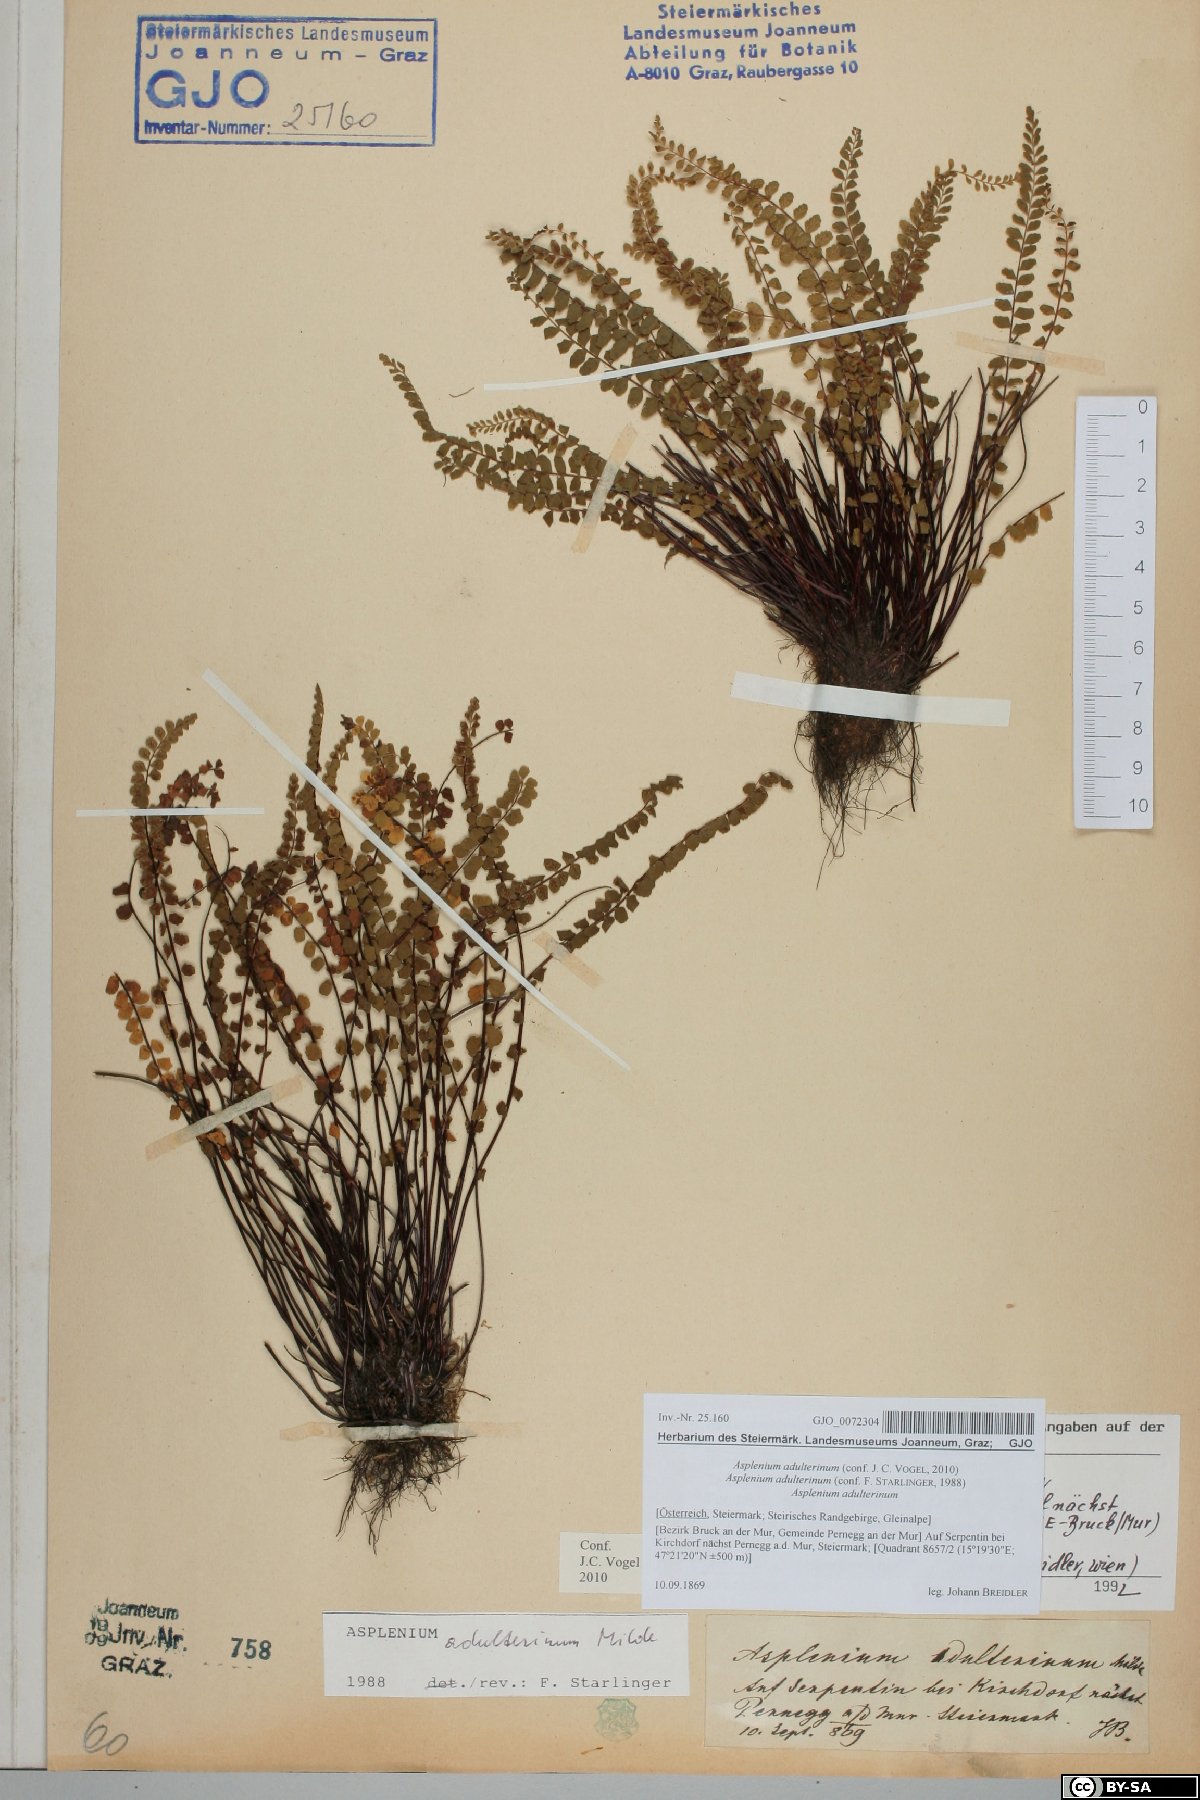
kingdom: Plantae
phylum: Tracheophyta
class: Polypodiopsida
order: Polypodiales
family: Aspleniaceae
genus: Asplenium
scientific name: Asplenium adulterinum
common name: Adulterated spleenwort
